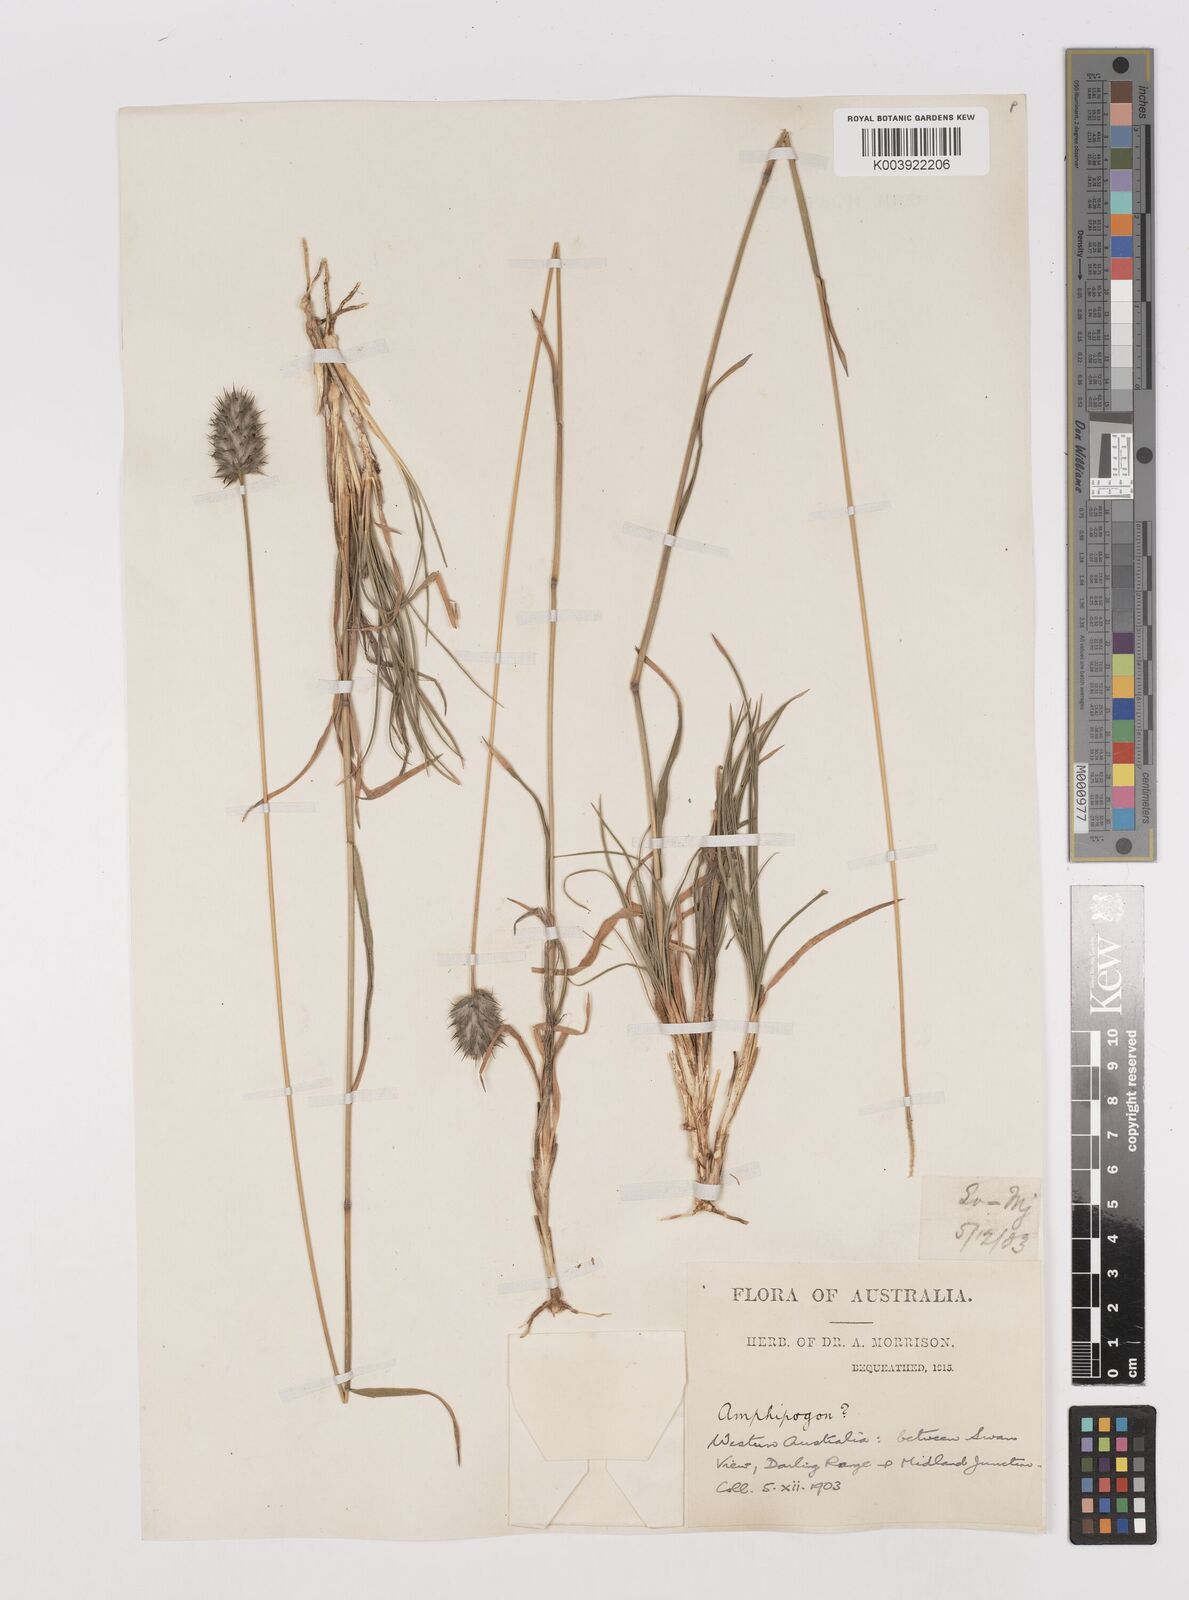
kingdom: Plantae
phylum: Tracheophyta
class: Liliopsida
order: Poales
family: Poaceae
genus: Neurachne
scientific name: Neurachne alopecuroidea
